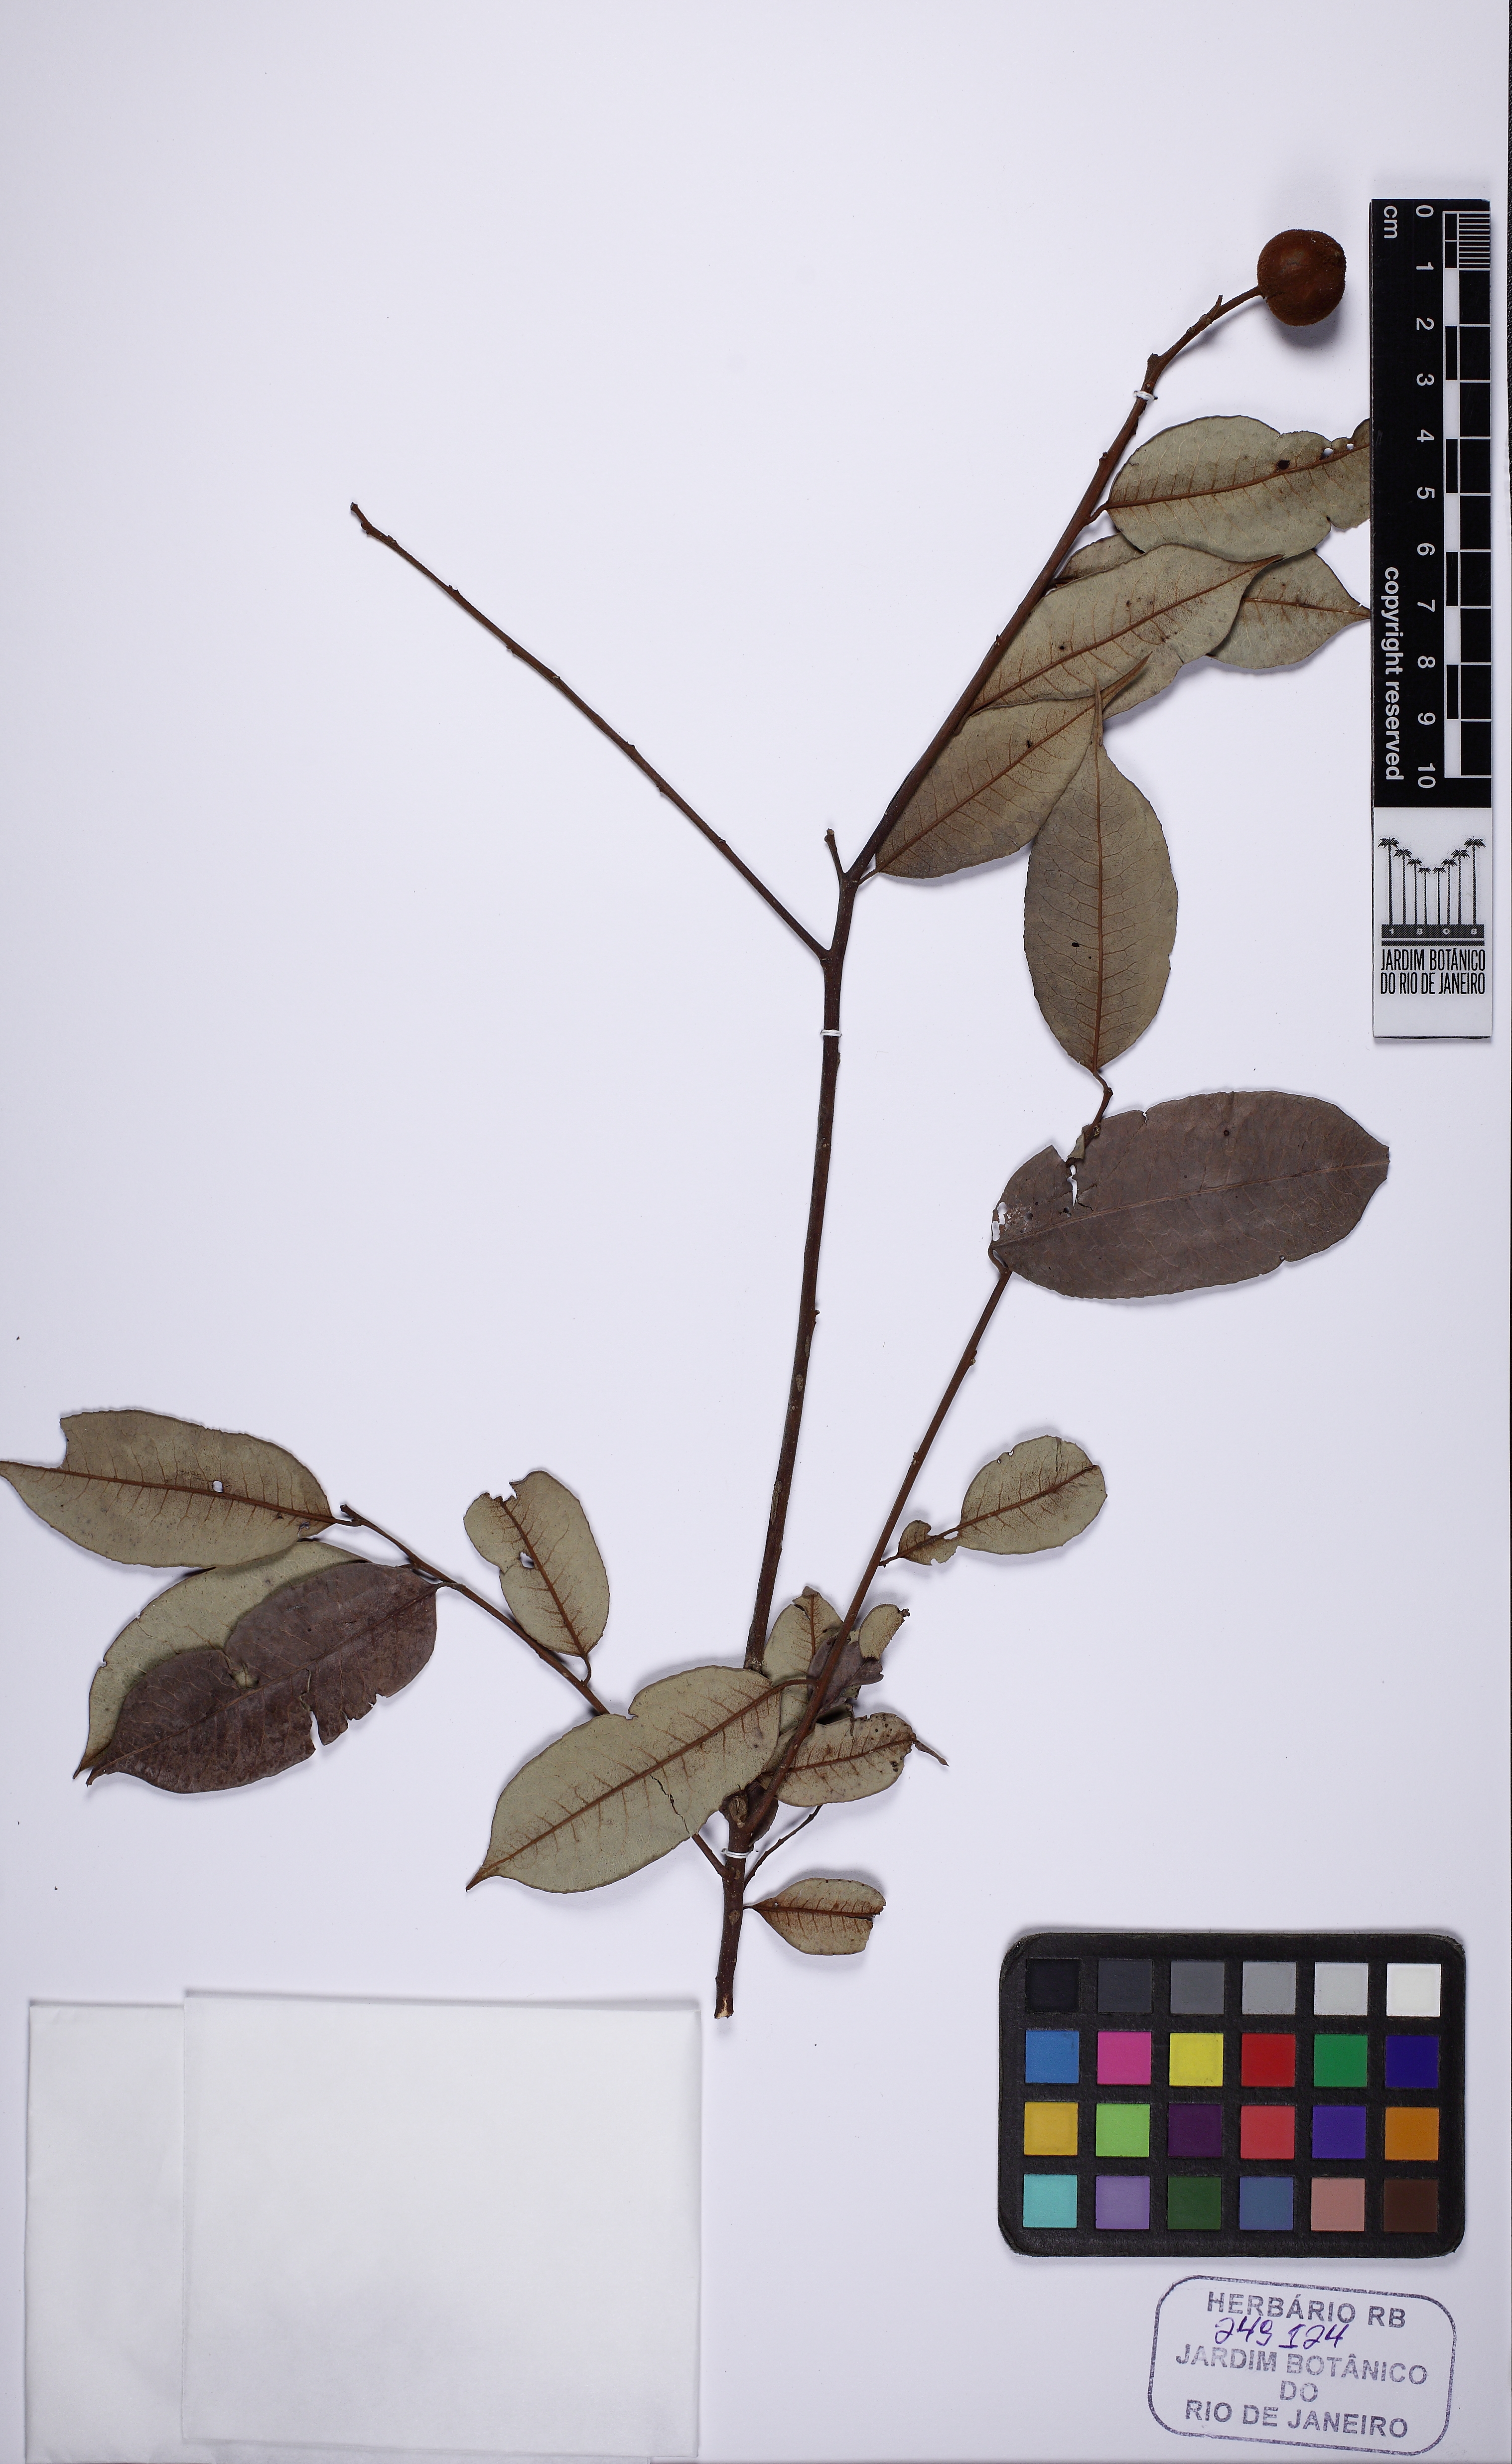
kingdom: Plantae
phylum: Tracheophyta
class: Magnoliopsida
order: Malpighiales
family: Euphorbiaceae
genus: Mabea
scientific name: Mabea fistulifera
